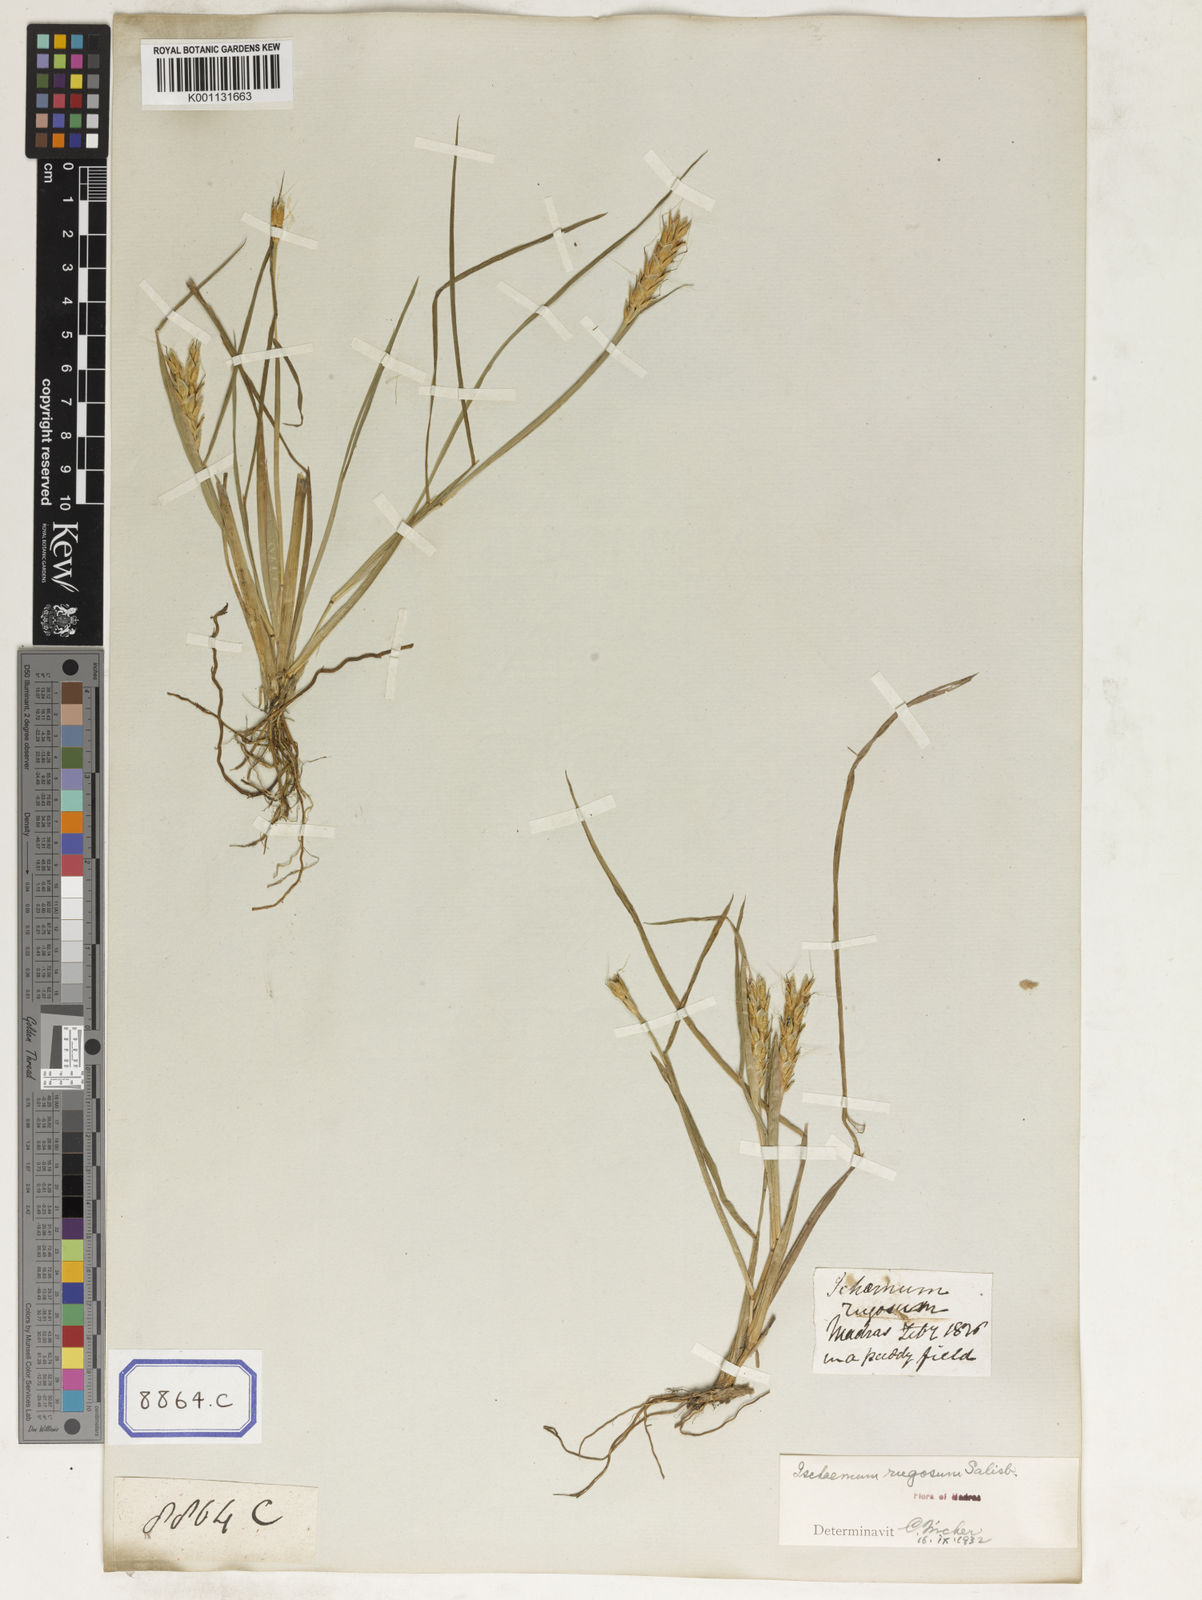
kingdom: Plantae
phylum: Tracheophyta
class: Liliopsida
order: Poales
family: Poaceae
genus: Ischaemum
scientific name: Ischaemum rugosum
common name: Saramatta grass
